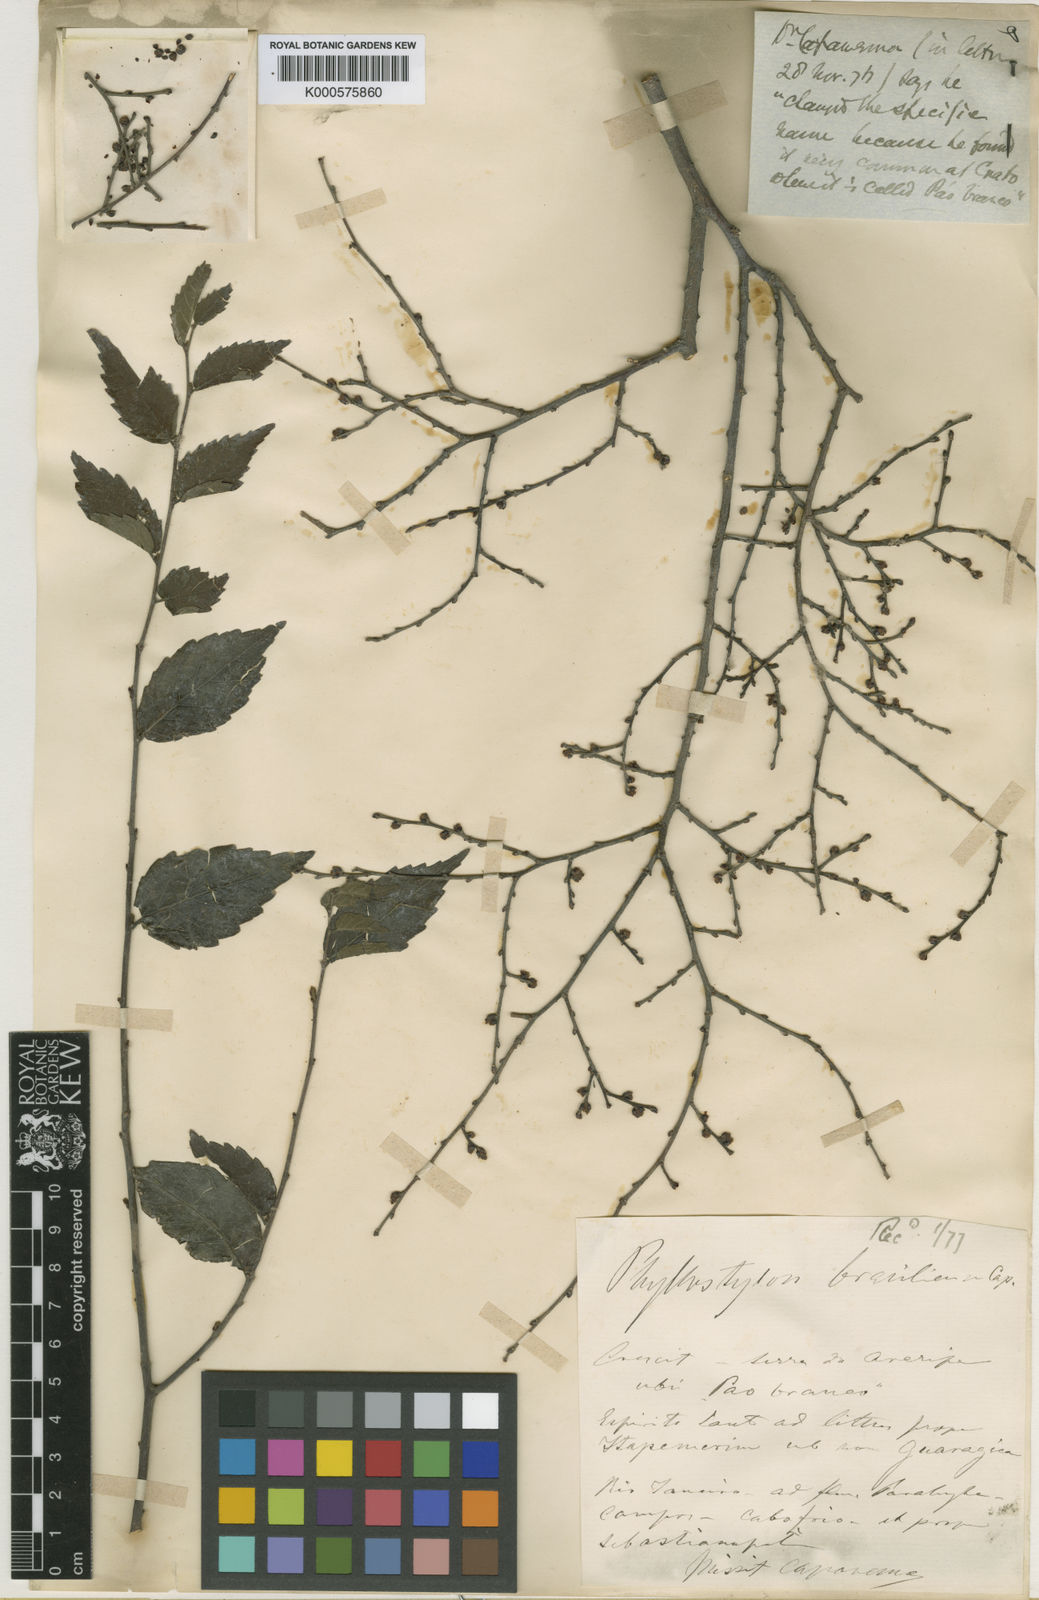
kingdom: Plantae
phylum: Tracheophyta
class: Magnoliopsida
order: Rosales
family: Ulmaceae
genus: Phyllostylon
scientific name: Phyllostylon brasiliensis
